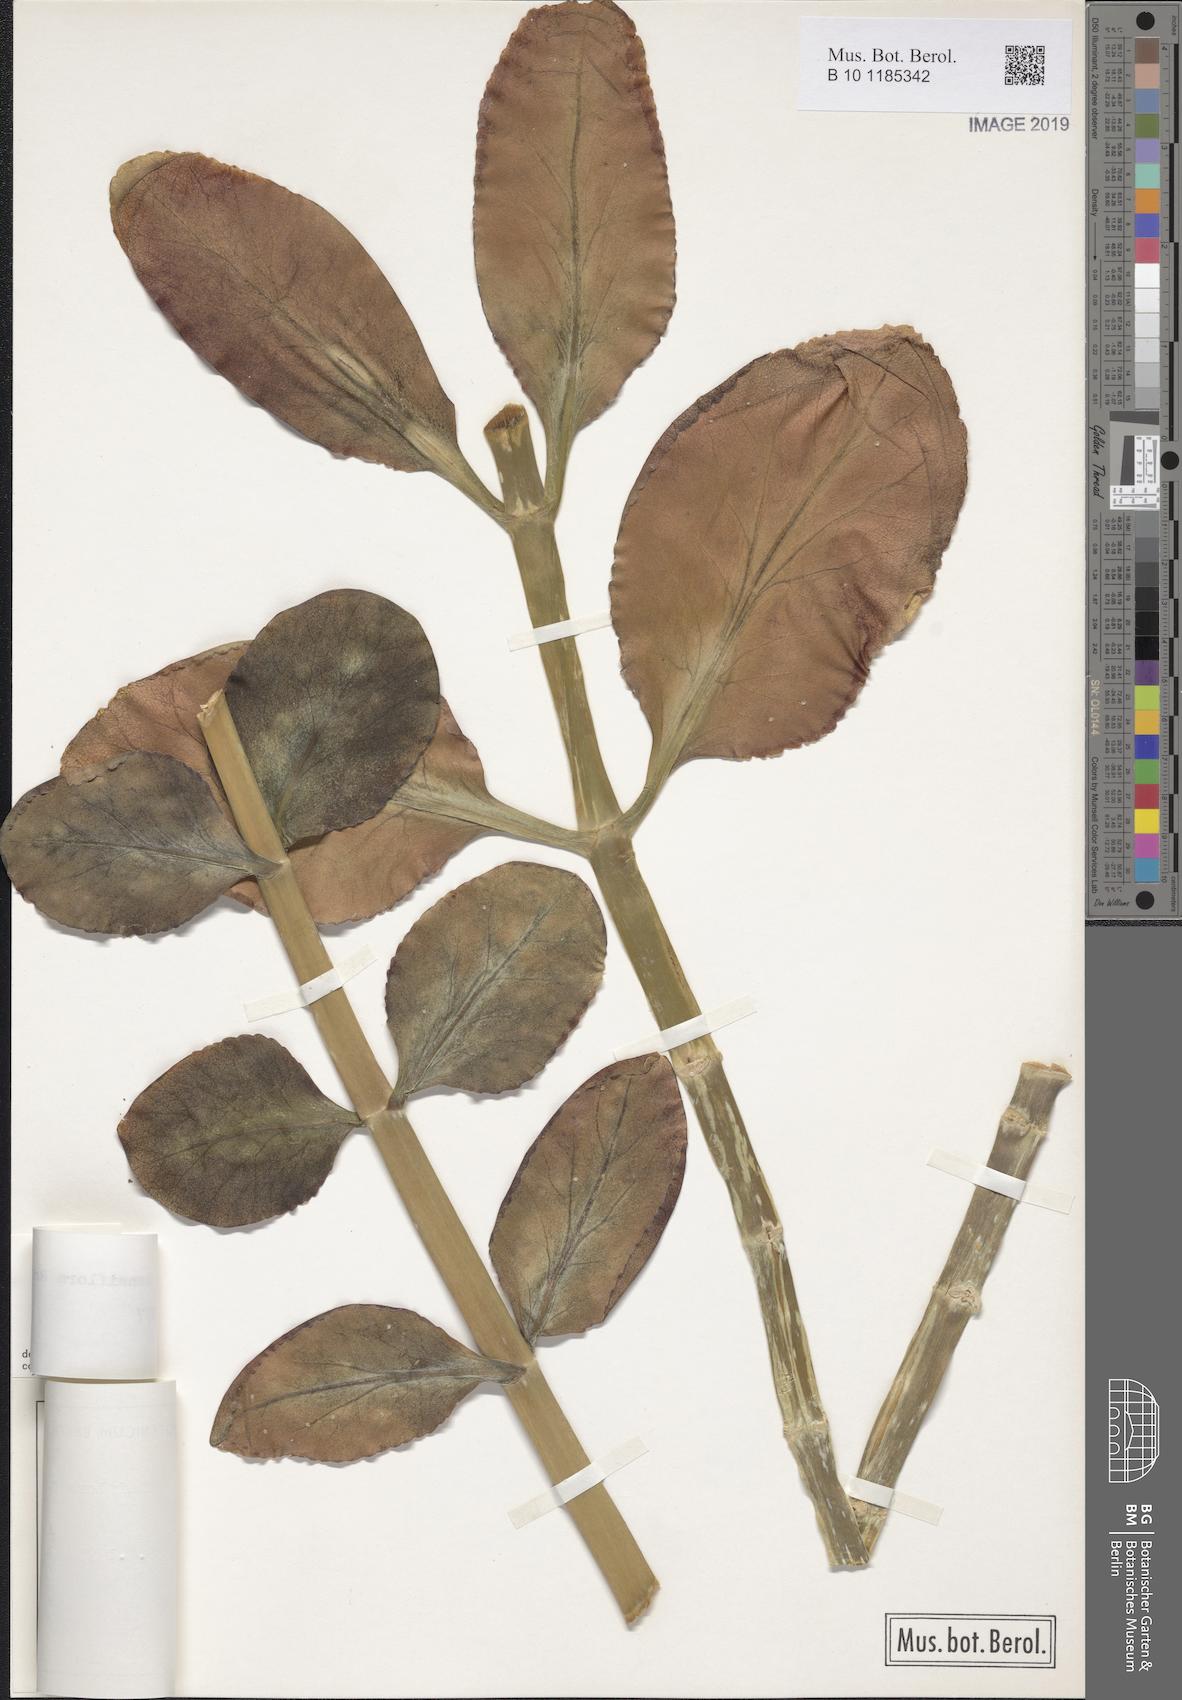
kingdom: Plantae
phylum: Tracheophyta
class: Magnoliopsida
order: Saxifragales
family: Crassulaceae
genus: Kalanchoe
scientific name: Kalanchoe densiflora
